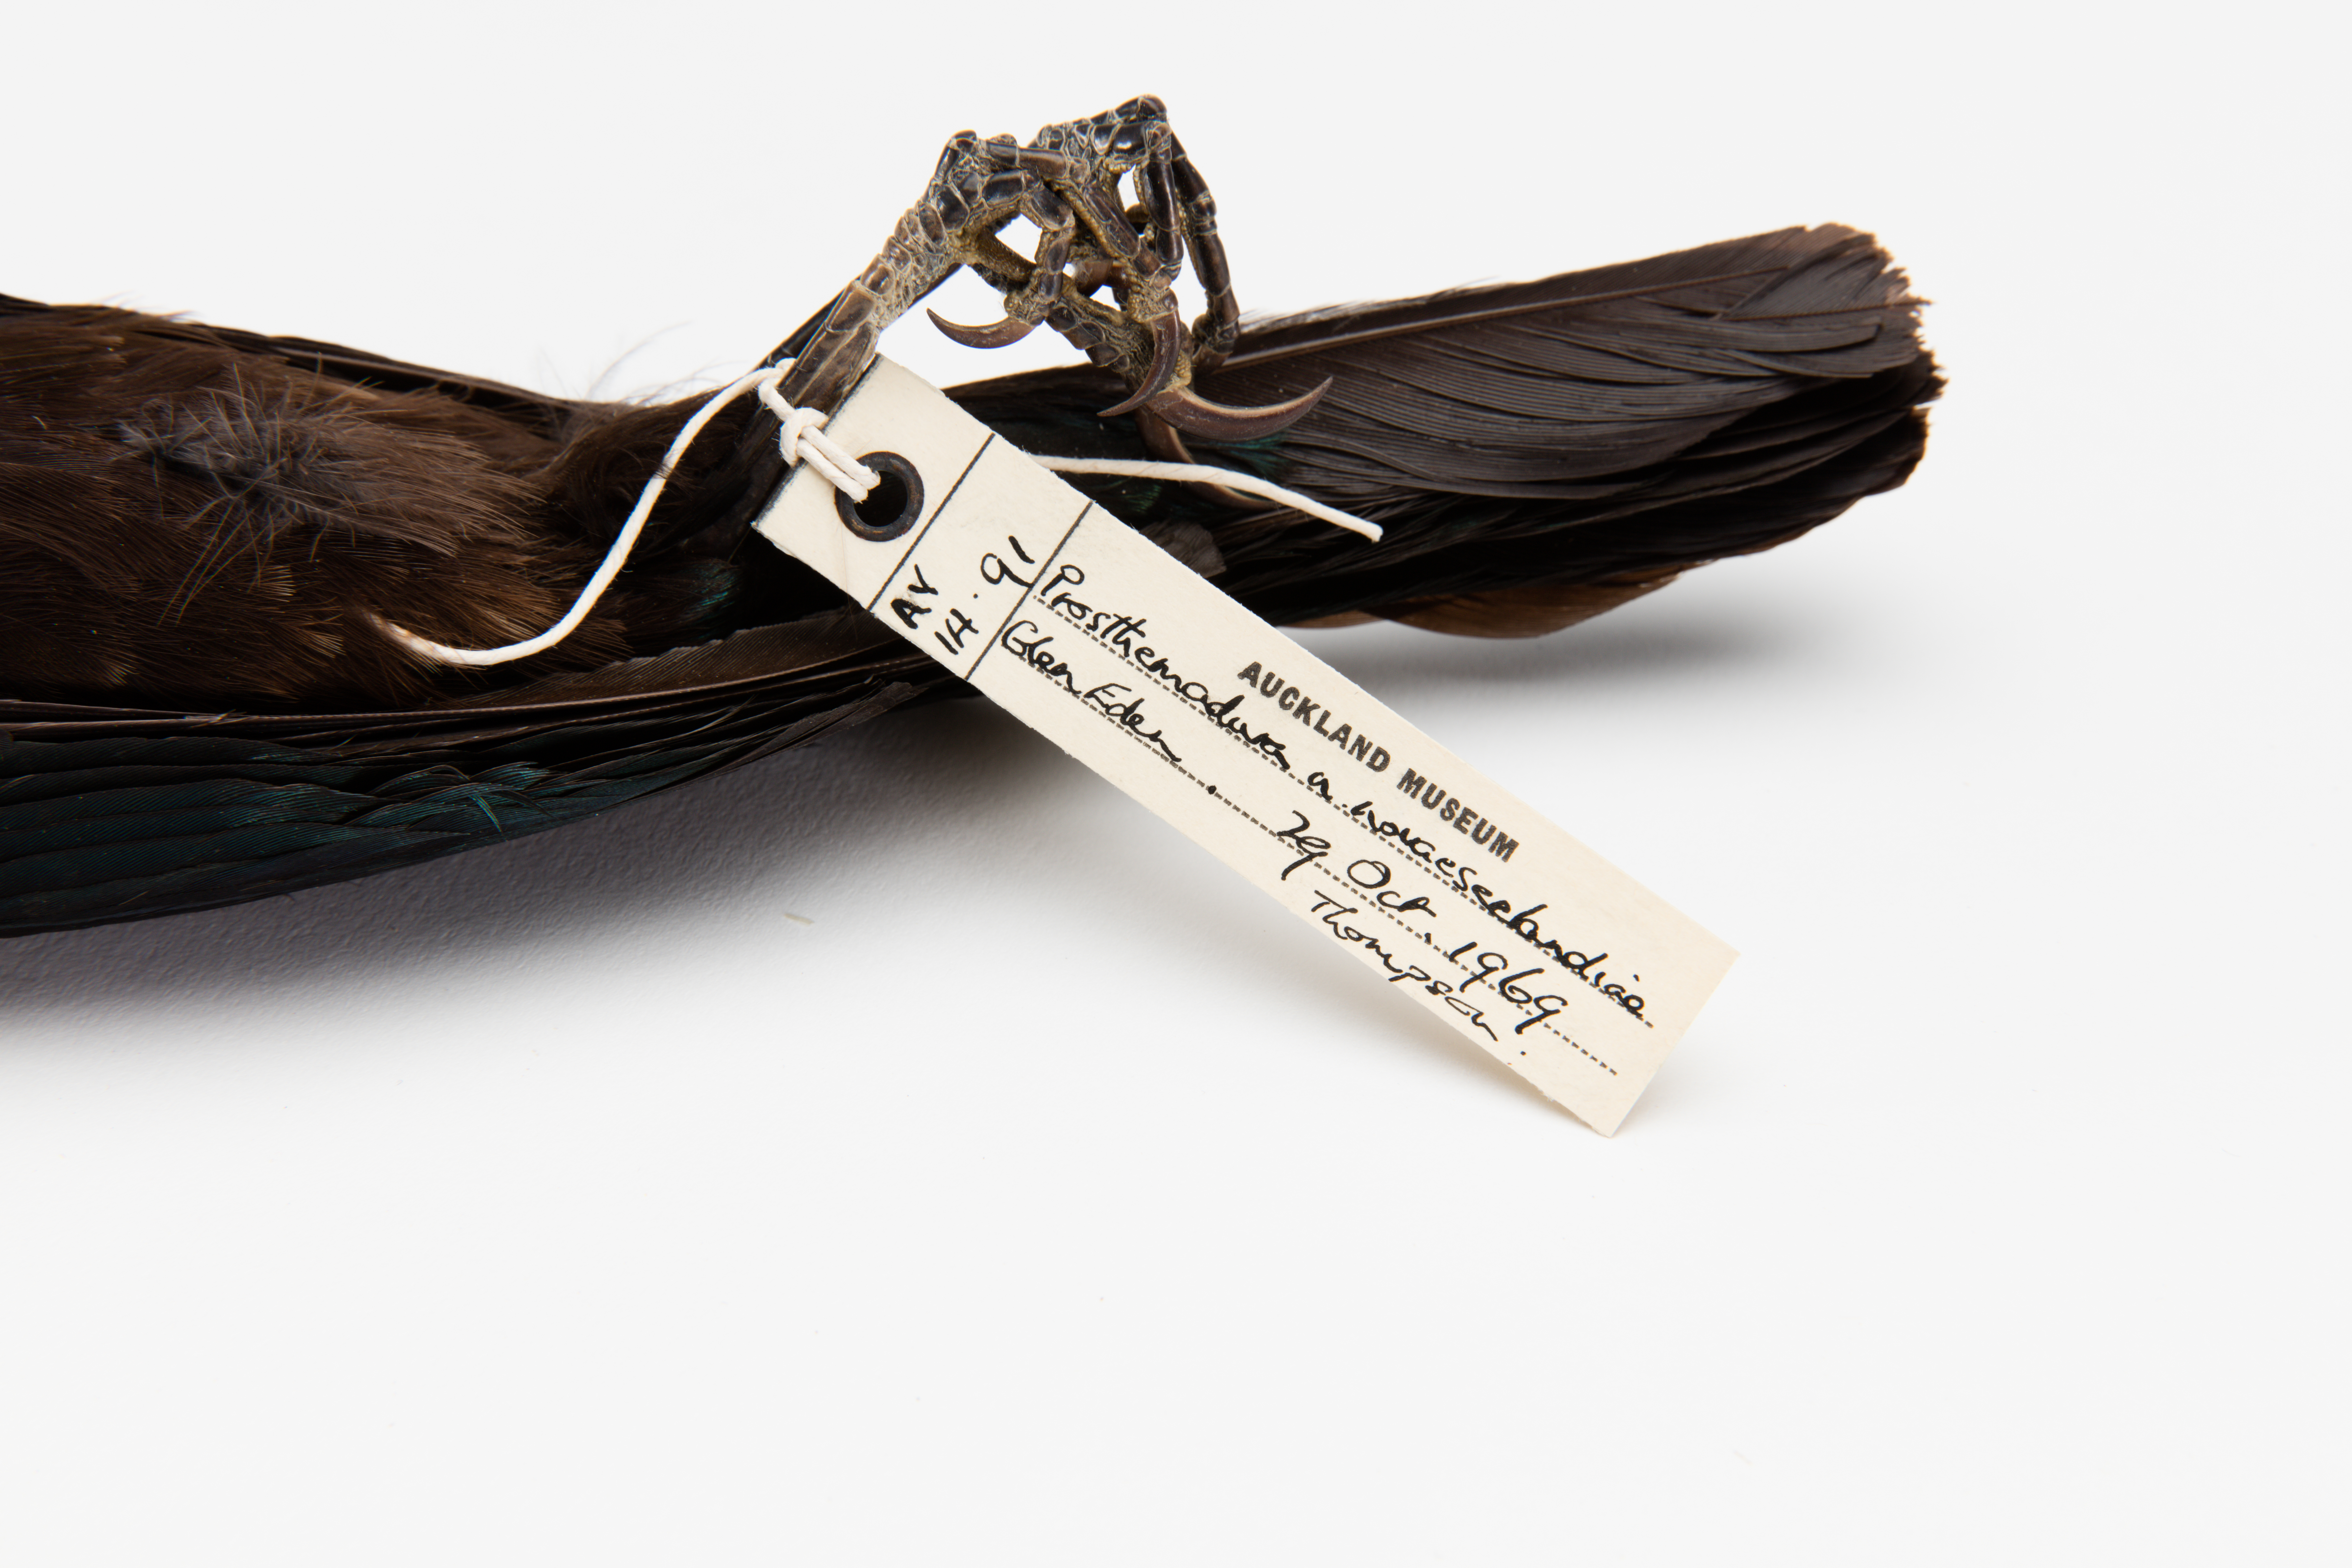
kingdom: Animalia
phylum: Chordata
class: Aves
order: Passeriformes
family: Meliphagidae
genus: Prosthemadera
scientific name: Prosthemadera novaeseelandiae
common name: Tui
